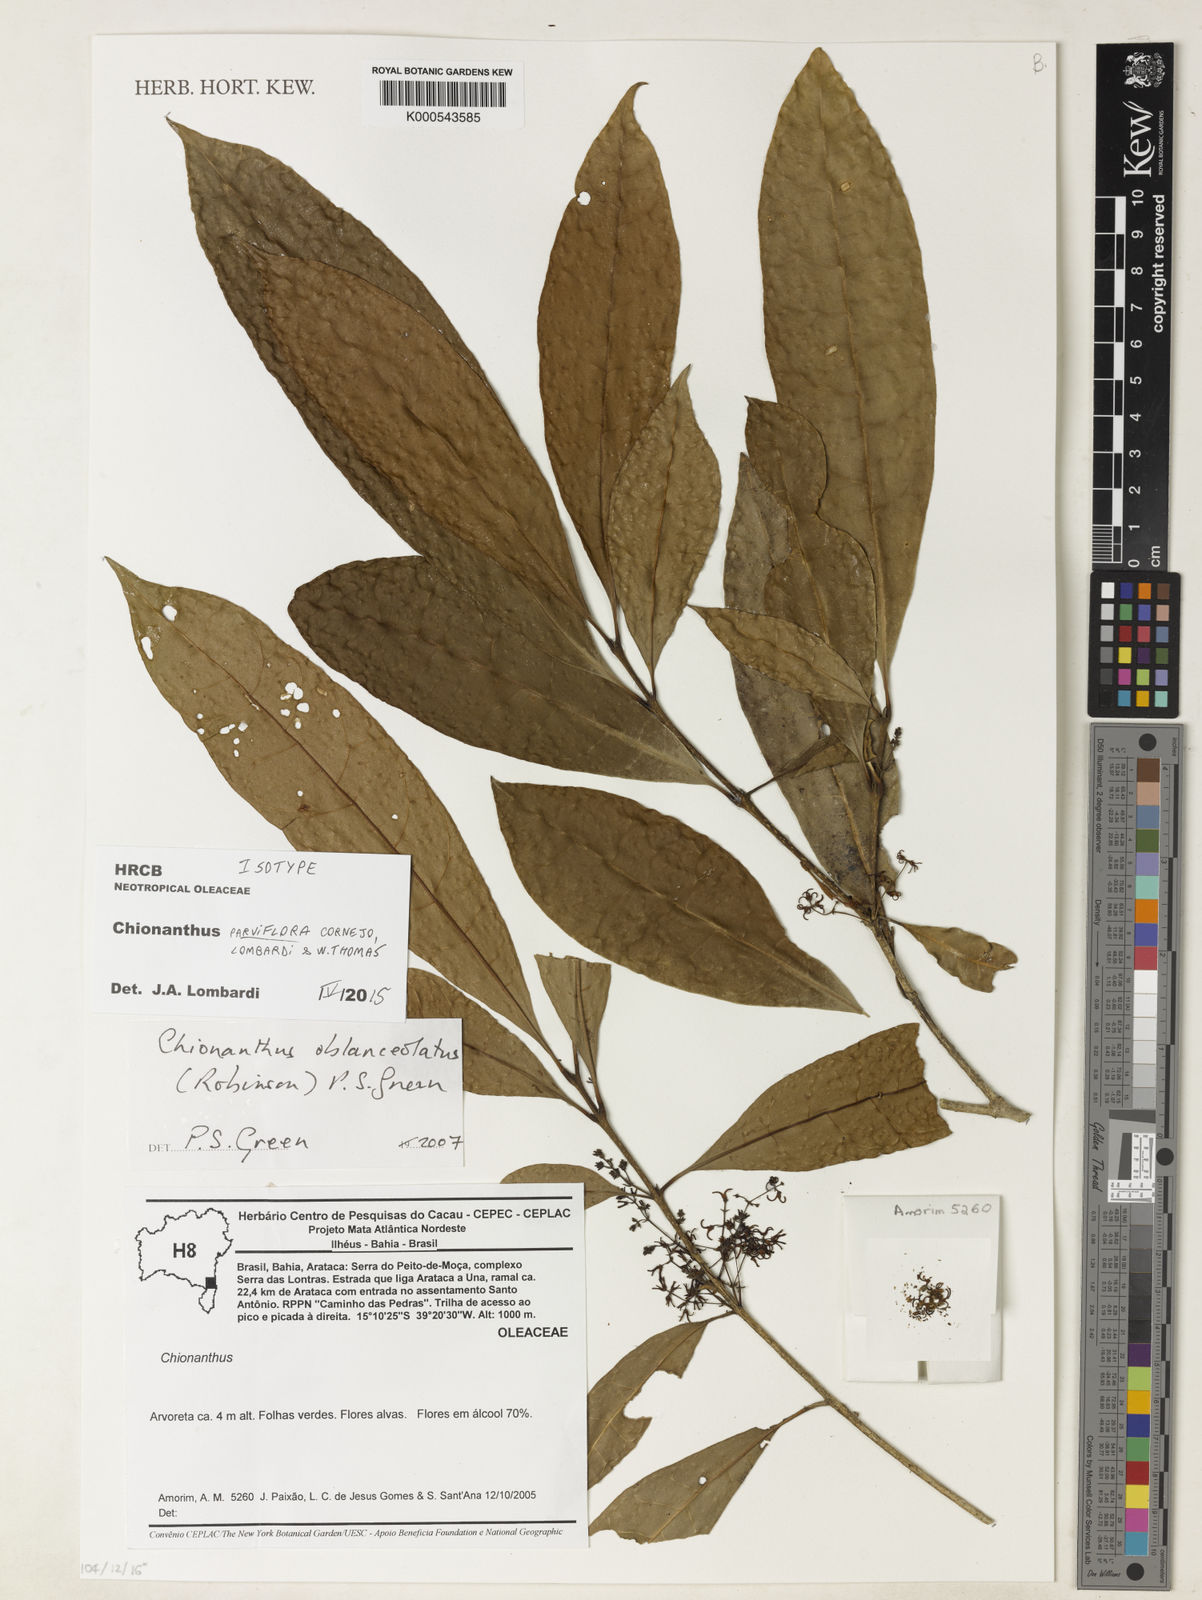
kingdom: Plantae
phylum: Tracheophyta
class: Magnoliopsida
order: Lamiales
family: Oleaceae
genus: Chionanthus
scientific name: Chionanthus parviflorus
